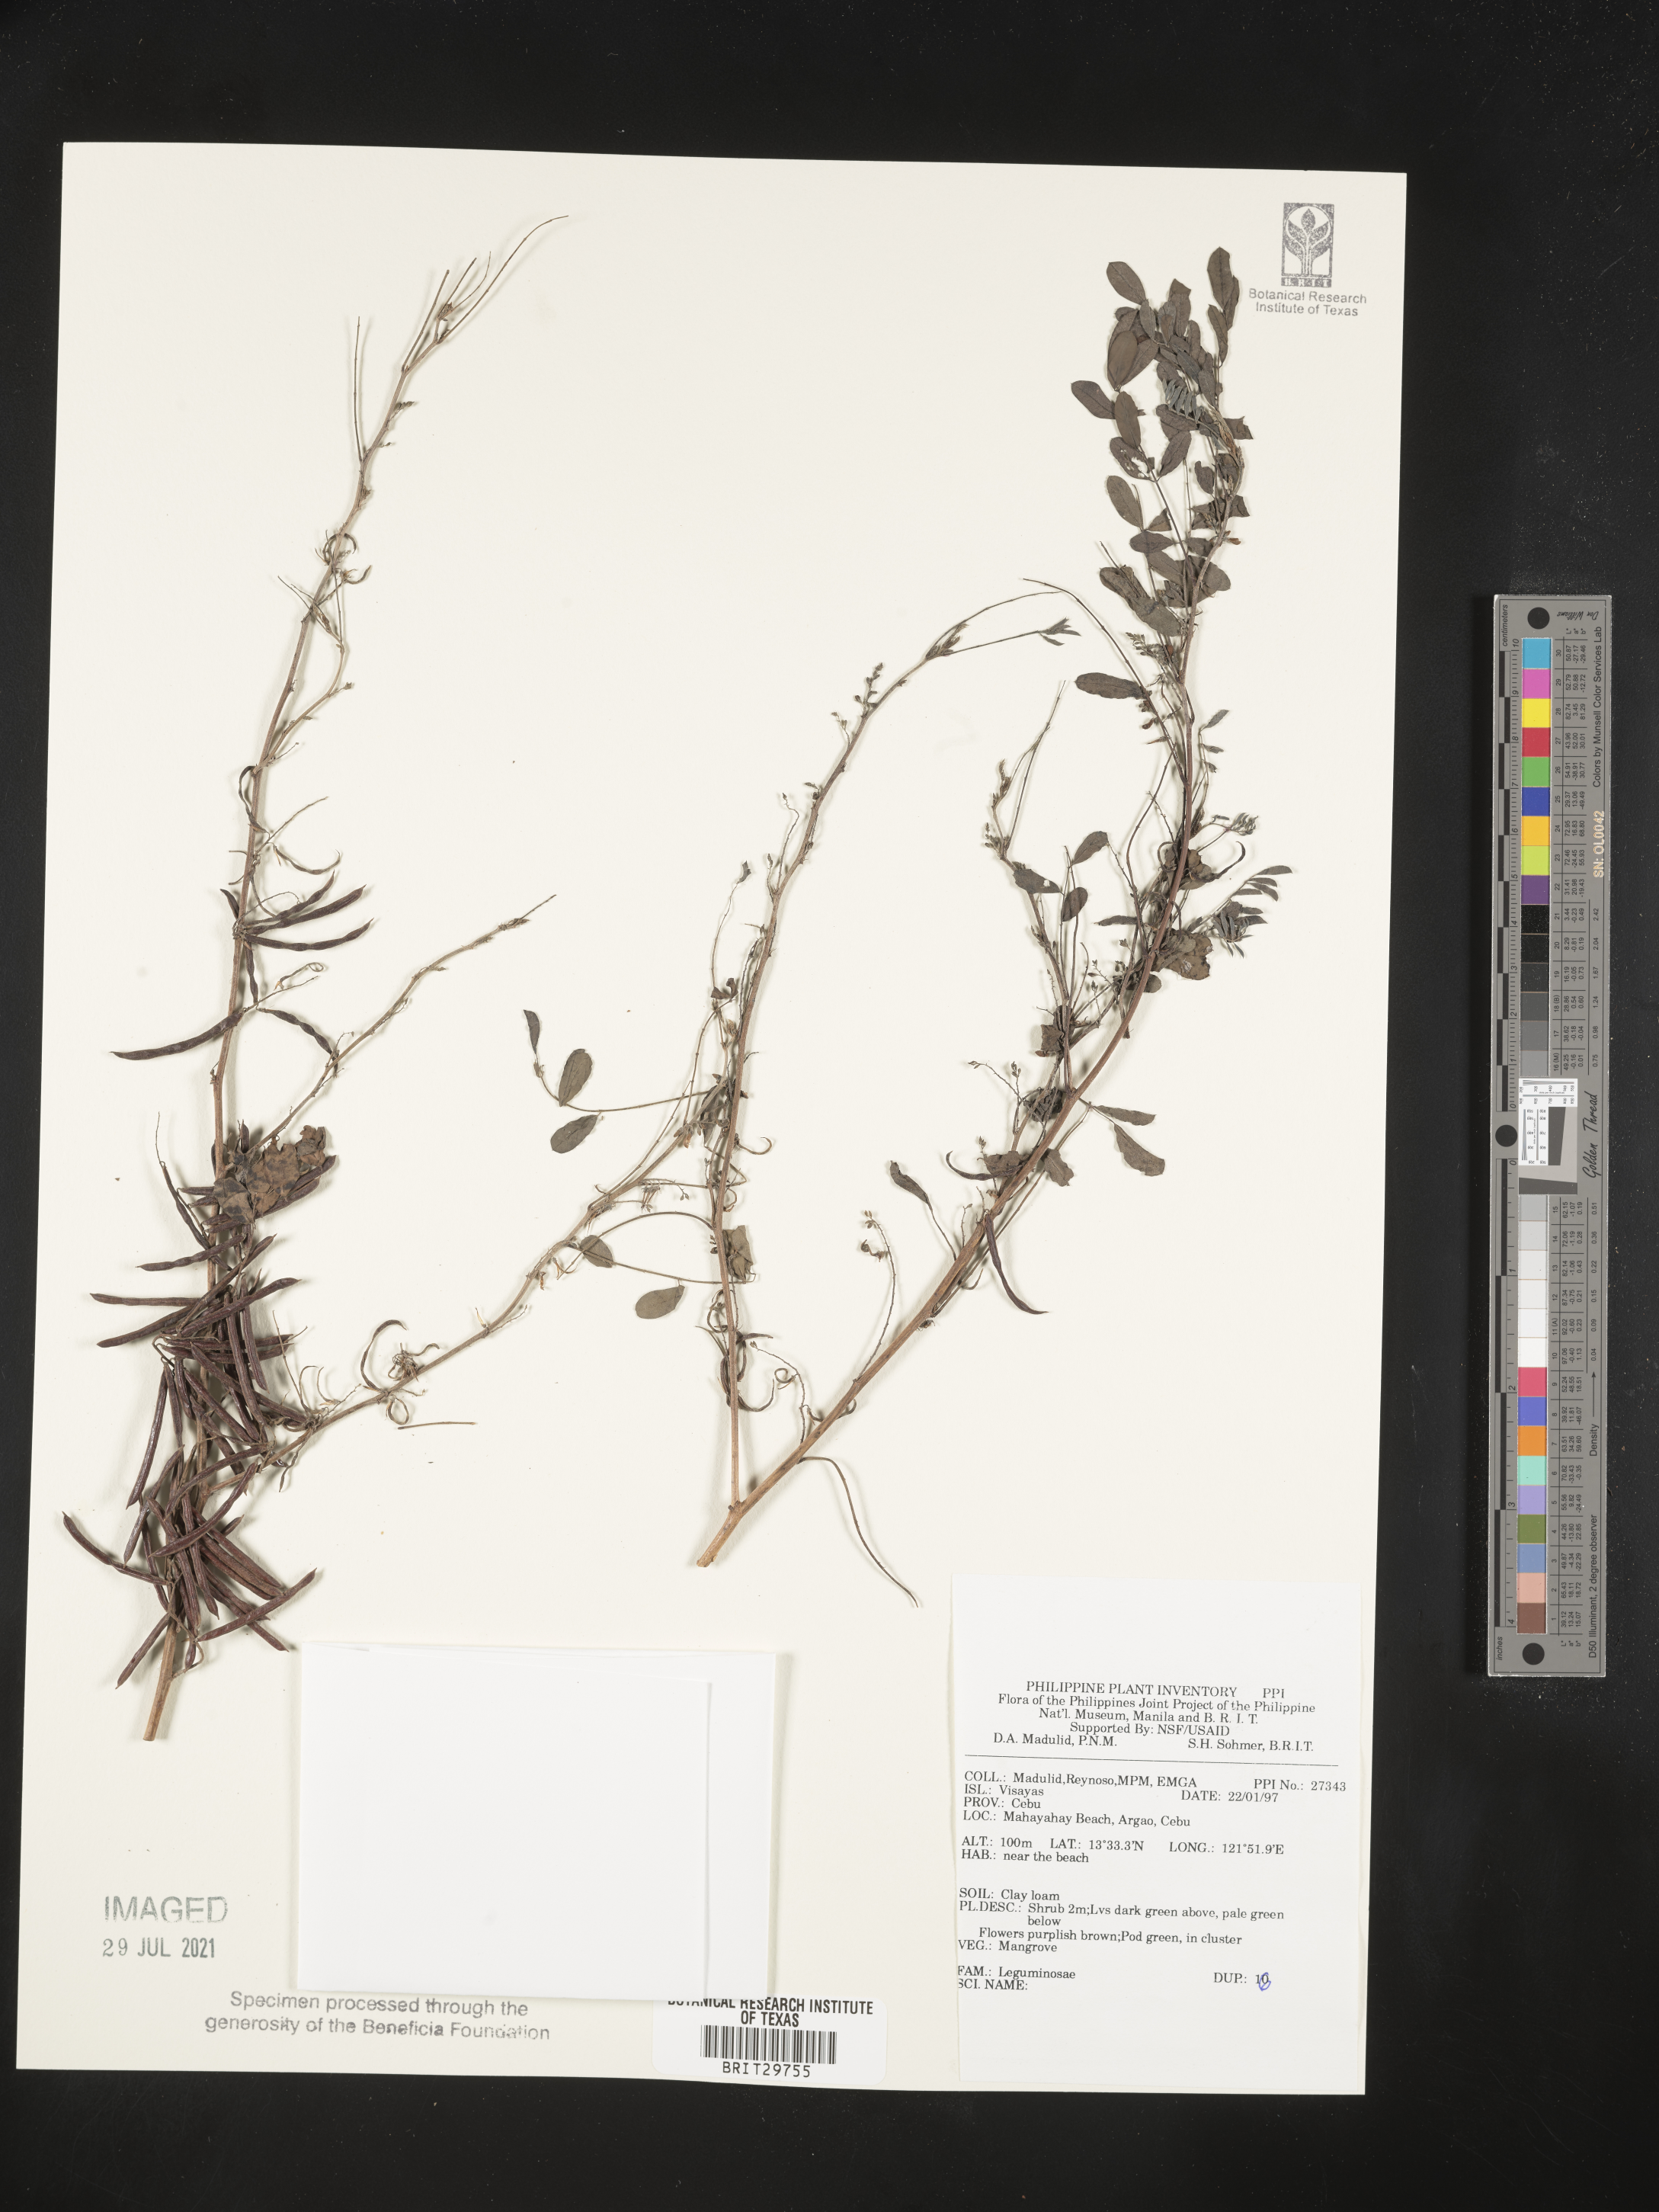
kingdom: Plantae
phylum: Tracheophyta
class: Magnoliopsida
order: Fabales
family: Fabaceae
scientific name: Fabaceae
